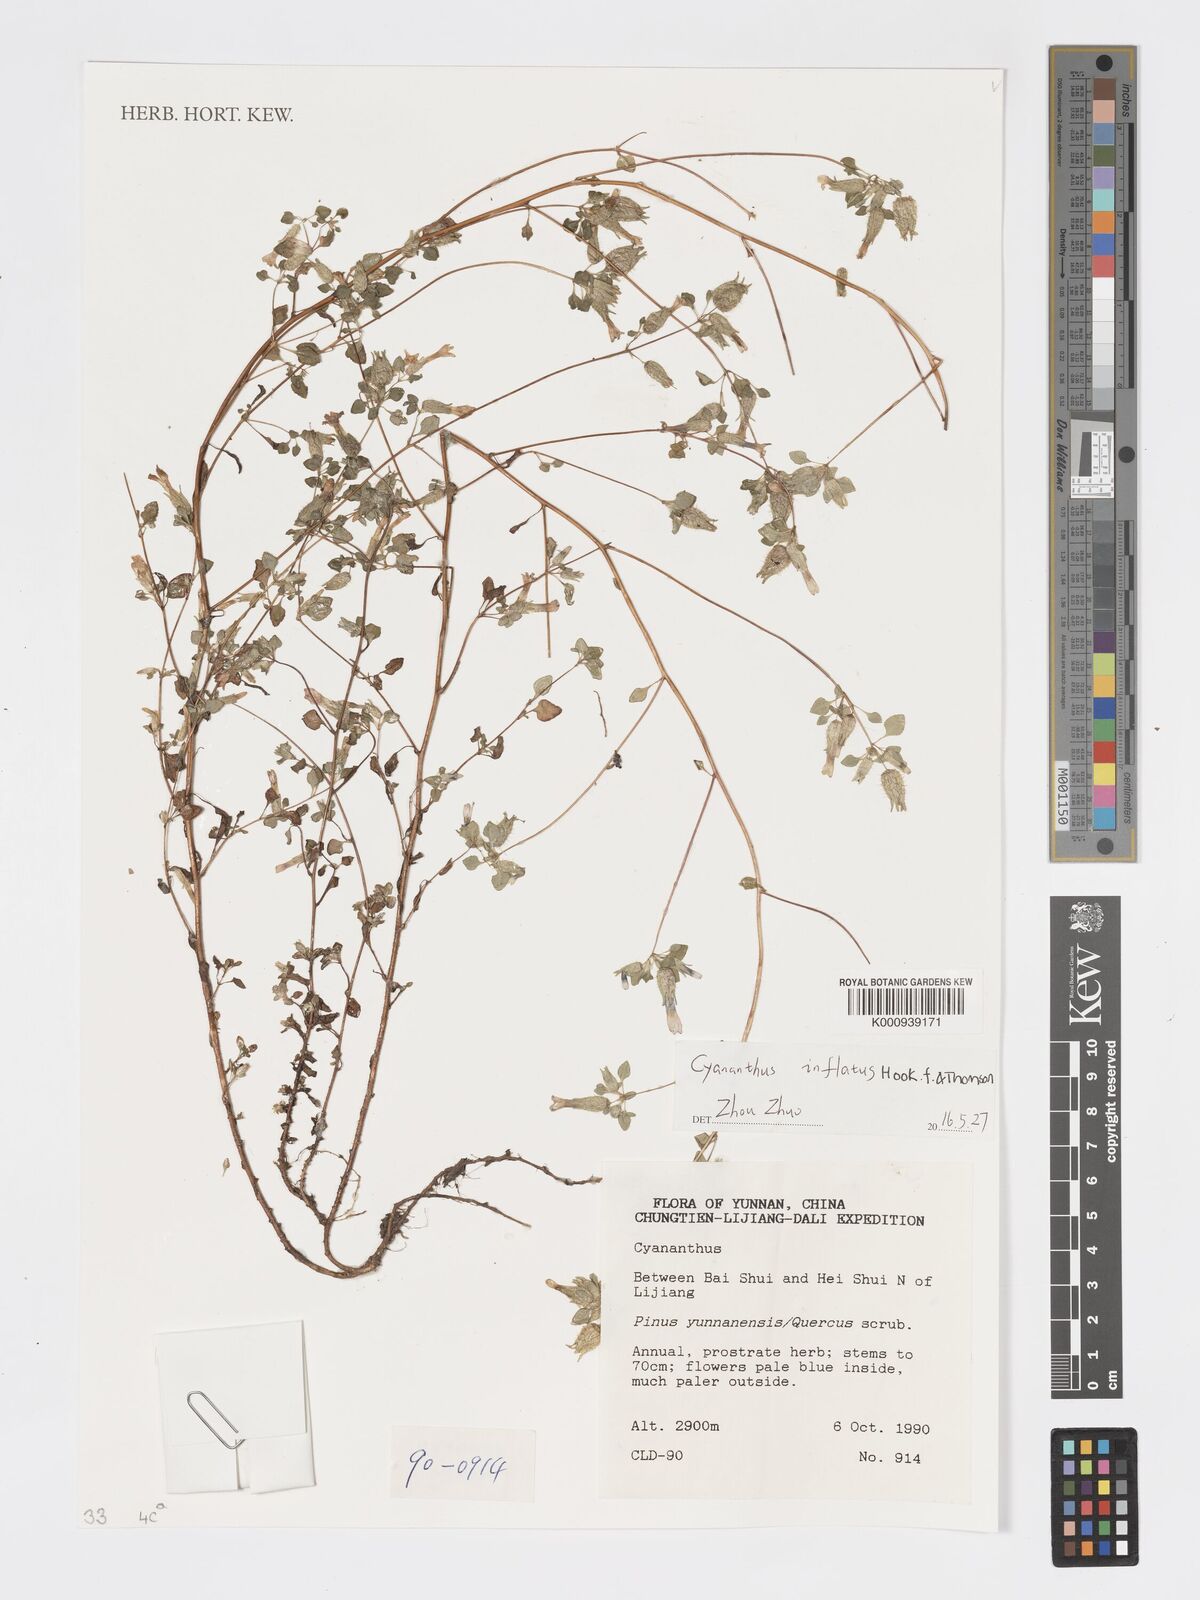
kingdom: Plantae
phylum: Tracheophyta
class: Magnoliopsida
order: Asterales
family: Campanulaceae
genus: Cyananthus
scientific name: Cyananthus inflatus
